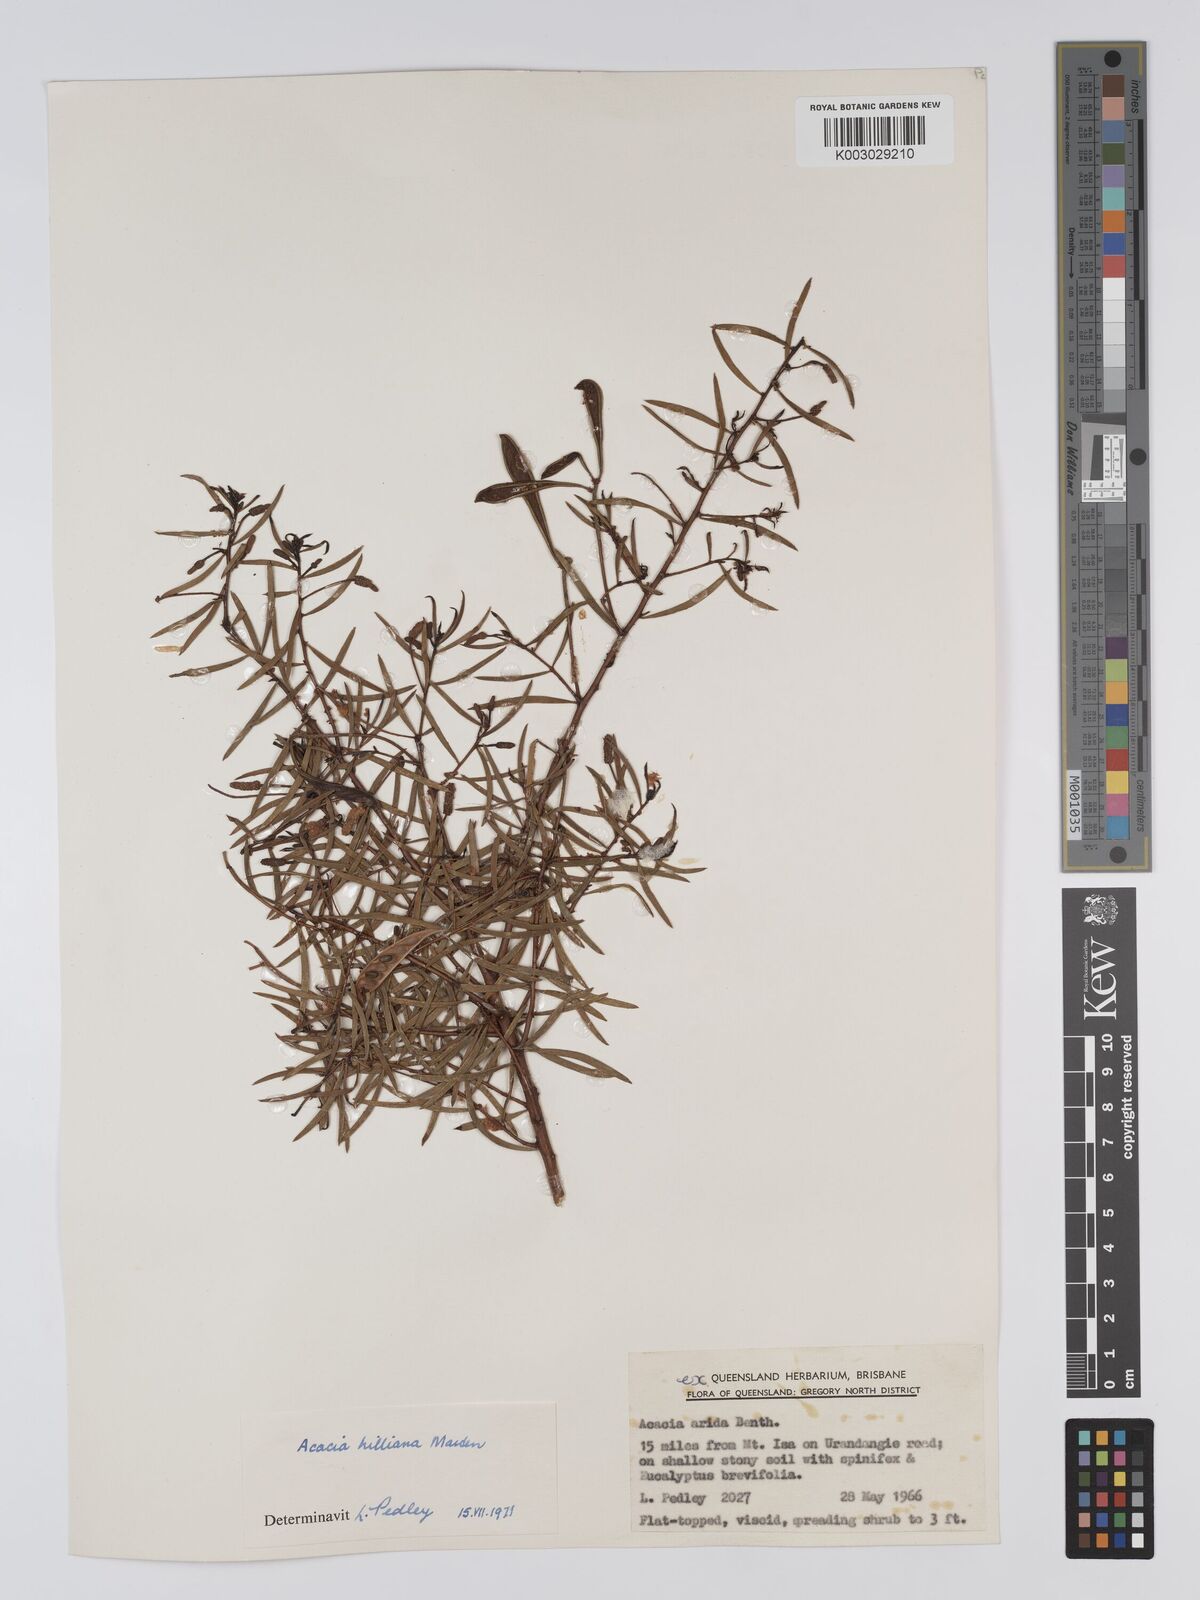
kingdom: Plantae
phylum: Tracheophyta
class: Magnoliopsida
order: Fabales
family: Fabaceae
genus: Acacia
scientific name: Acacia hilliana
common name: Hill's tabletop wattle
